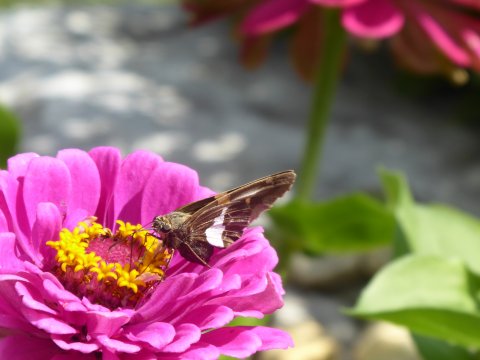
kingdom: Animalia
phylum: Arthropoda
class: Insecta
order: Lepidoptera
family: Hesperiidae
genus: Epargyreus
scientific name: Epargyreus clarus
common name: Silver-spotted Skipper
